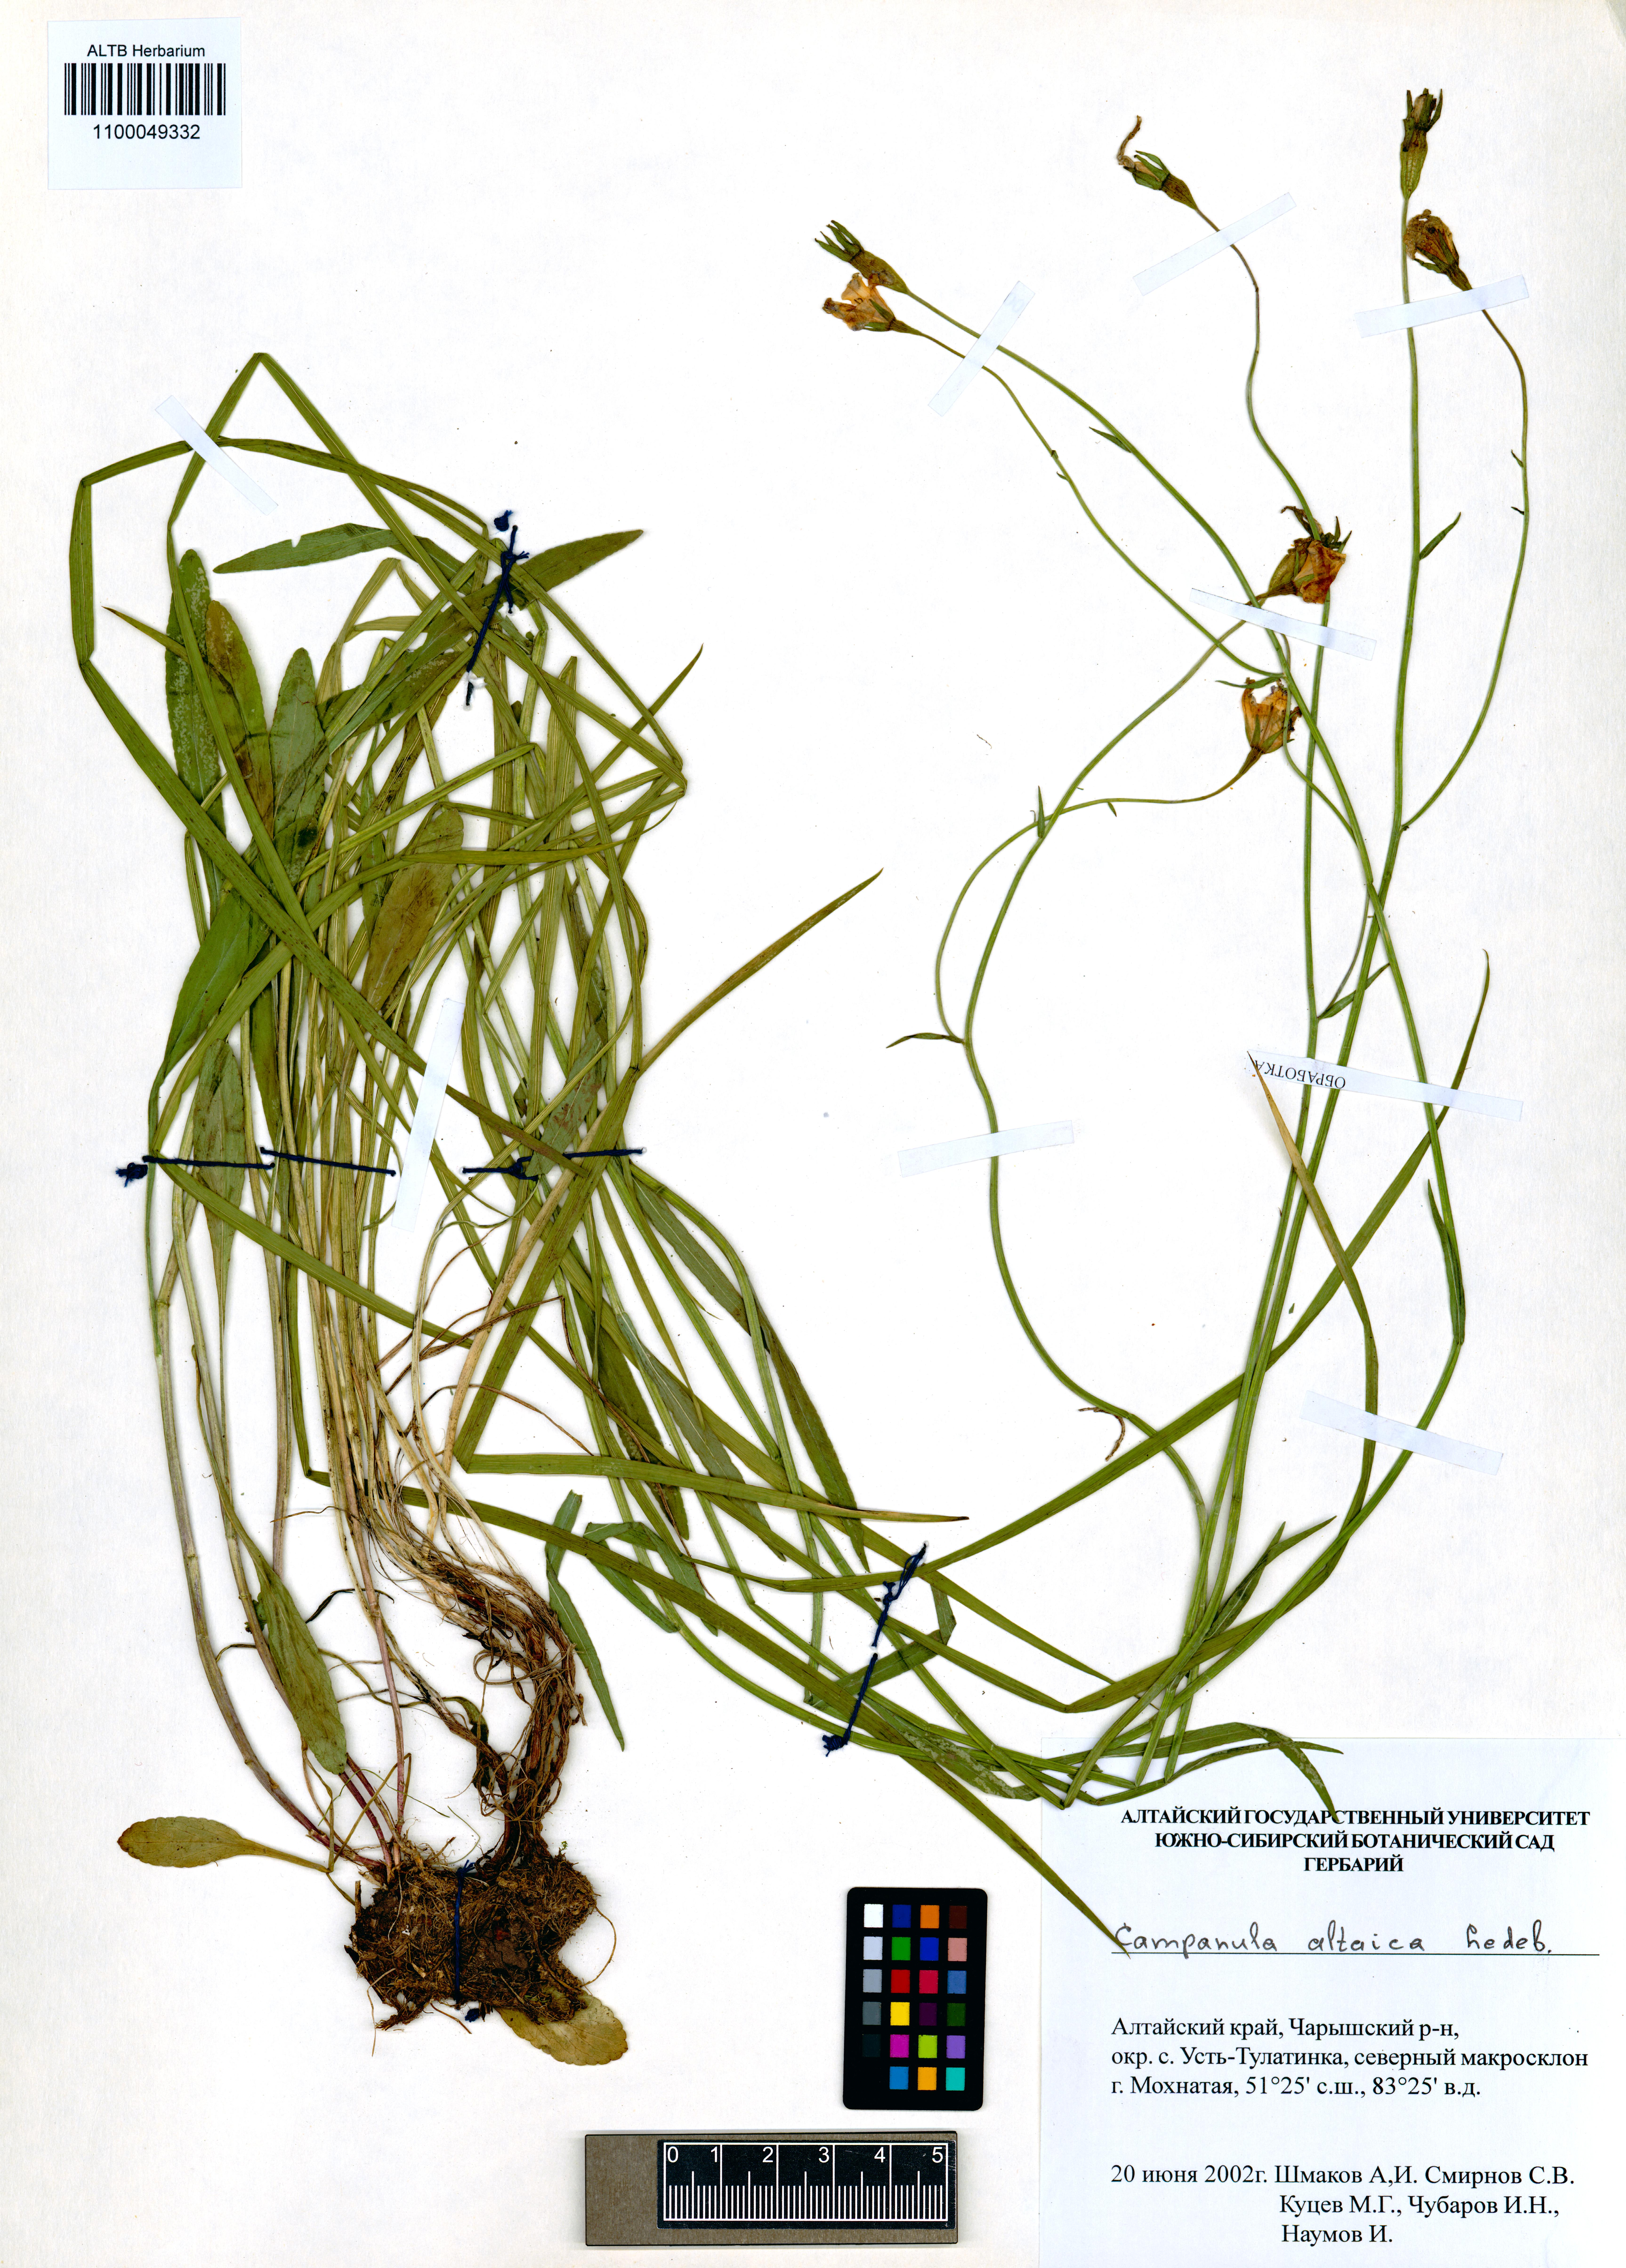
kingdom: Plantae
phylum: Tracheophyta
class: Magnoliopsida
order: Asterales
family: Campanulaceae
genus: Campanula
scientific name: Campanula stevenii
